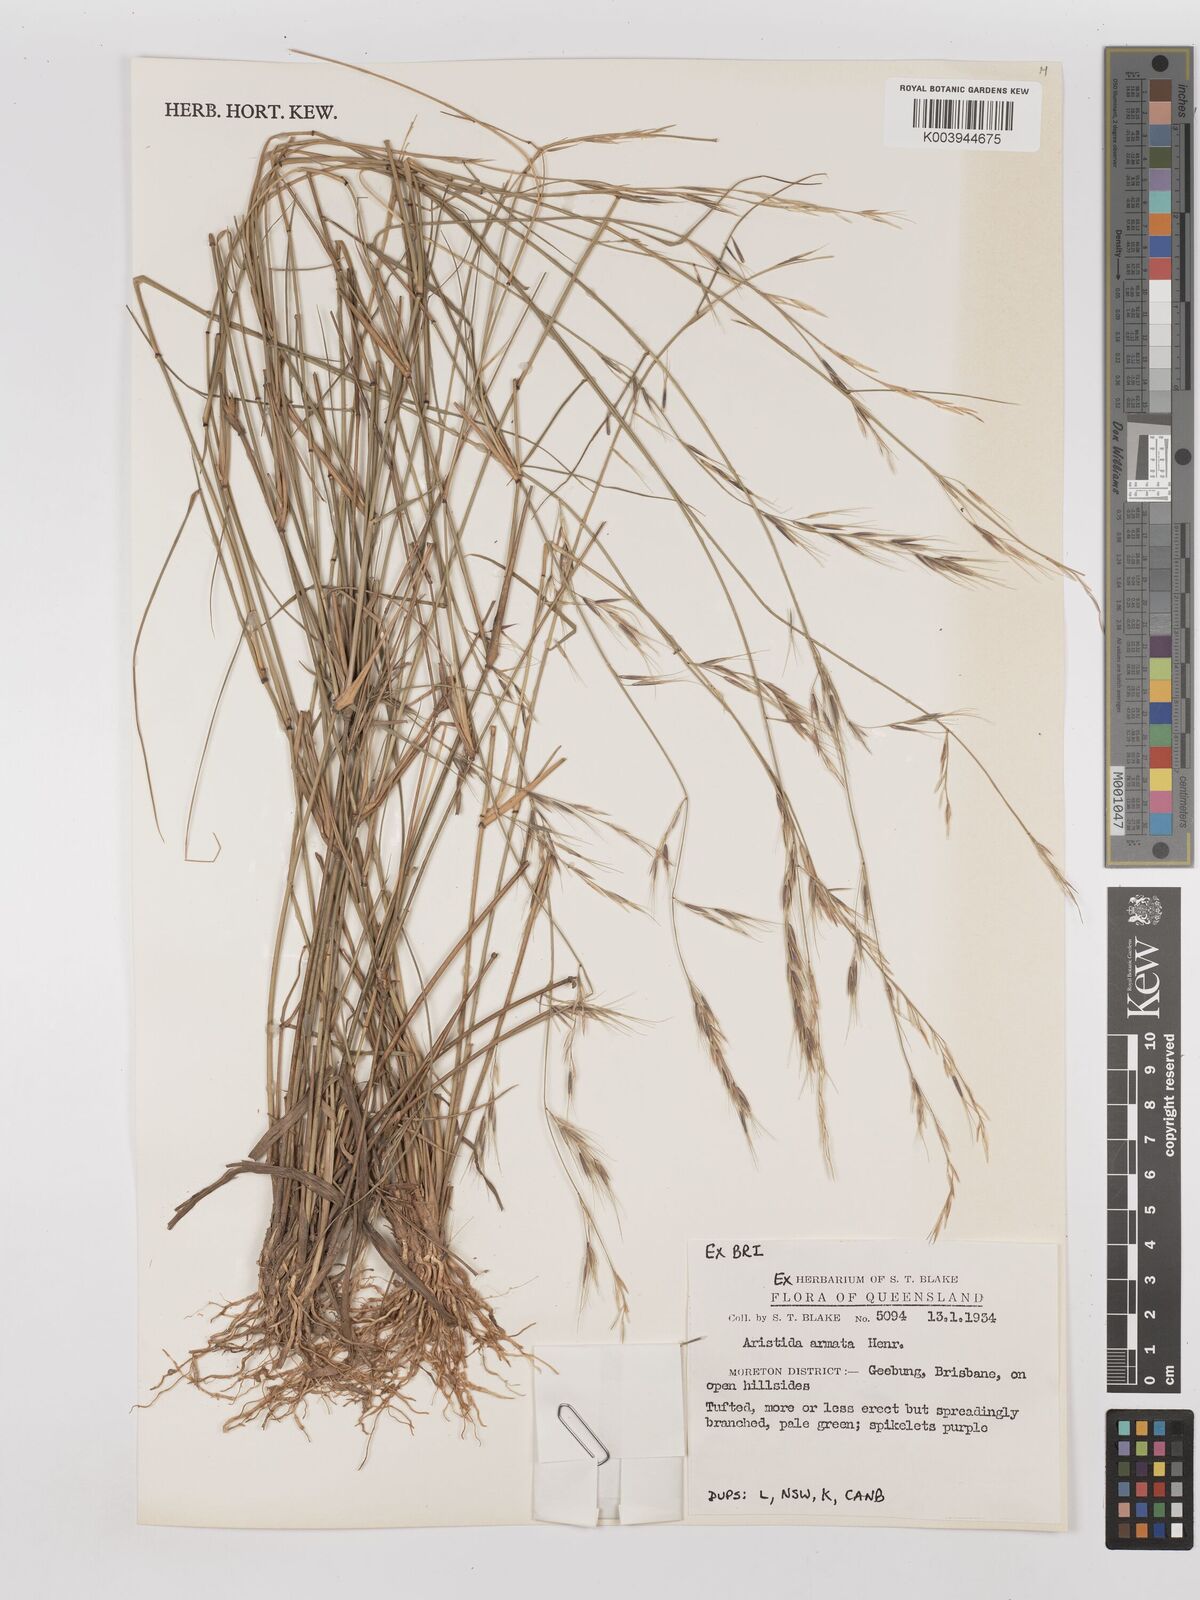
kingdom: Plantae
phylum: Tracheophyta
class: Liliopsida
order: Poales
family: Poaceae
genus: Aristida
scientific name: Aristida calycina
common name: Dark wire grass
